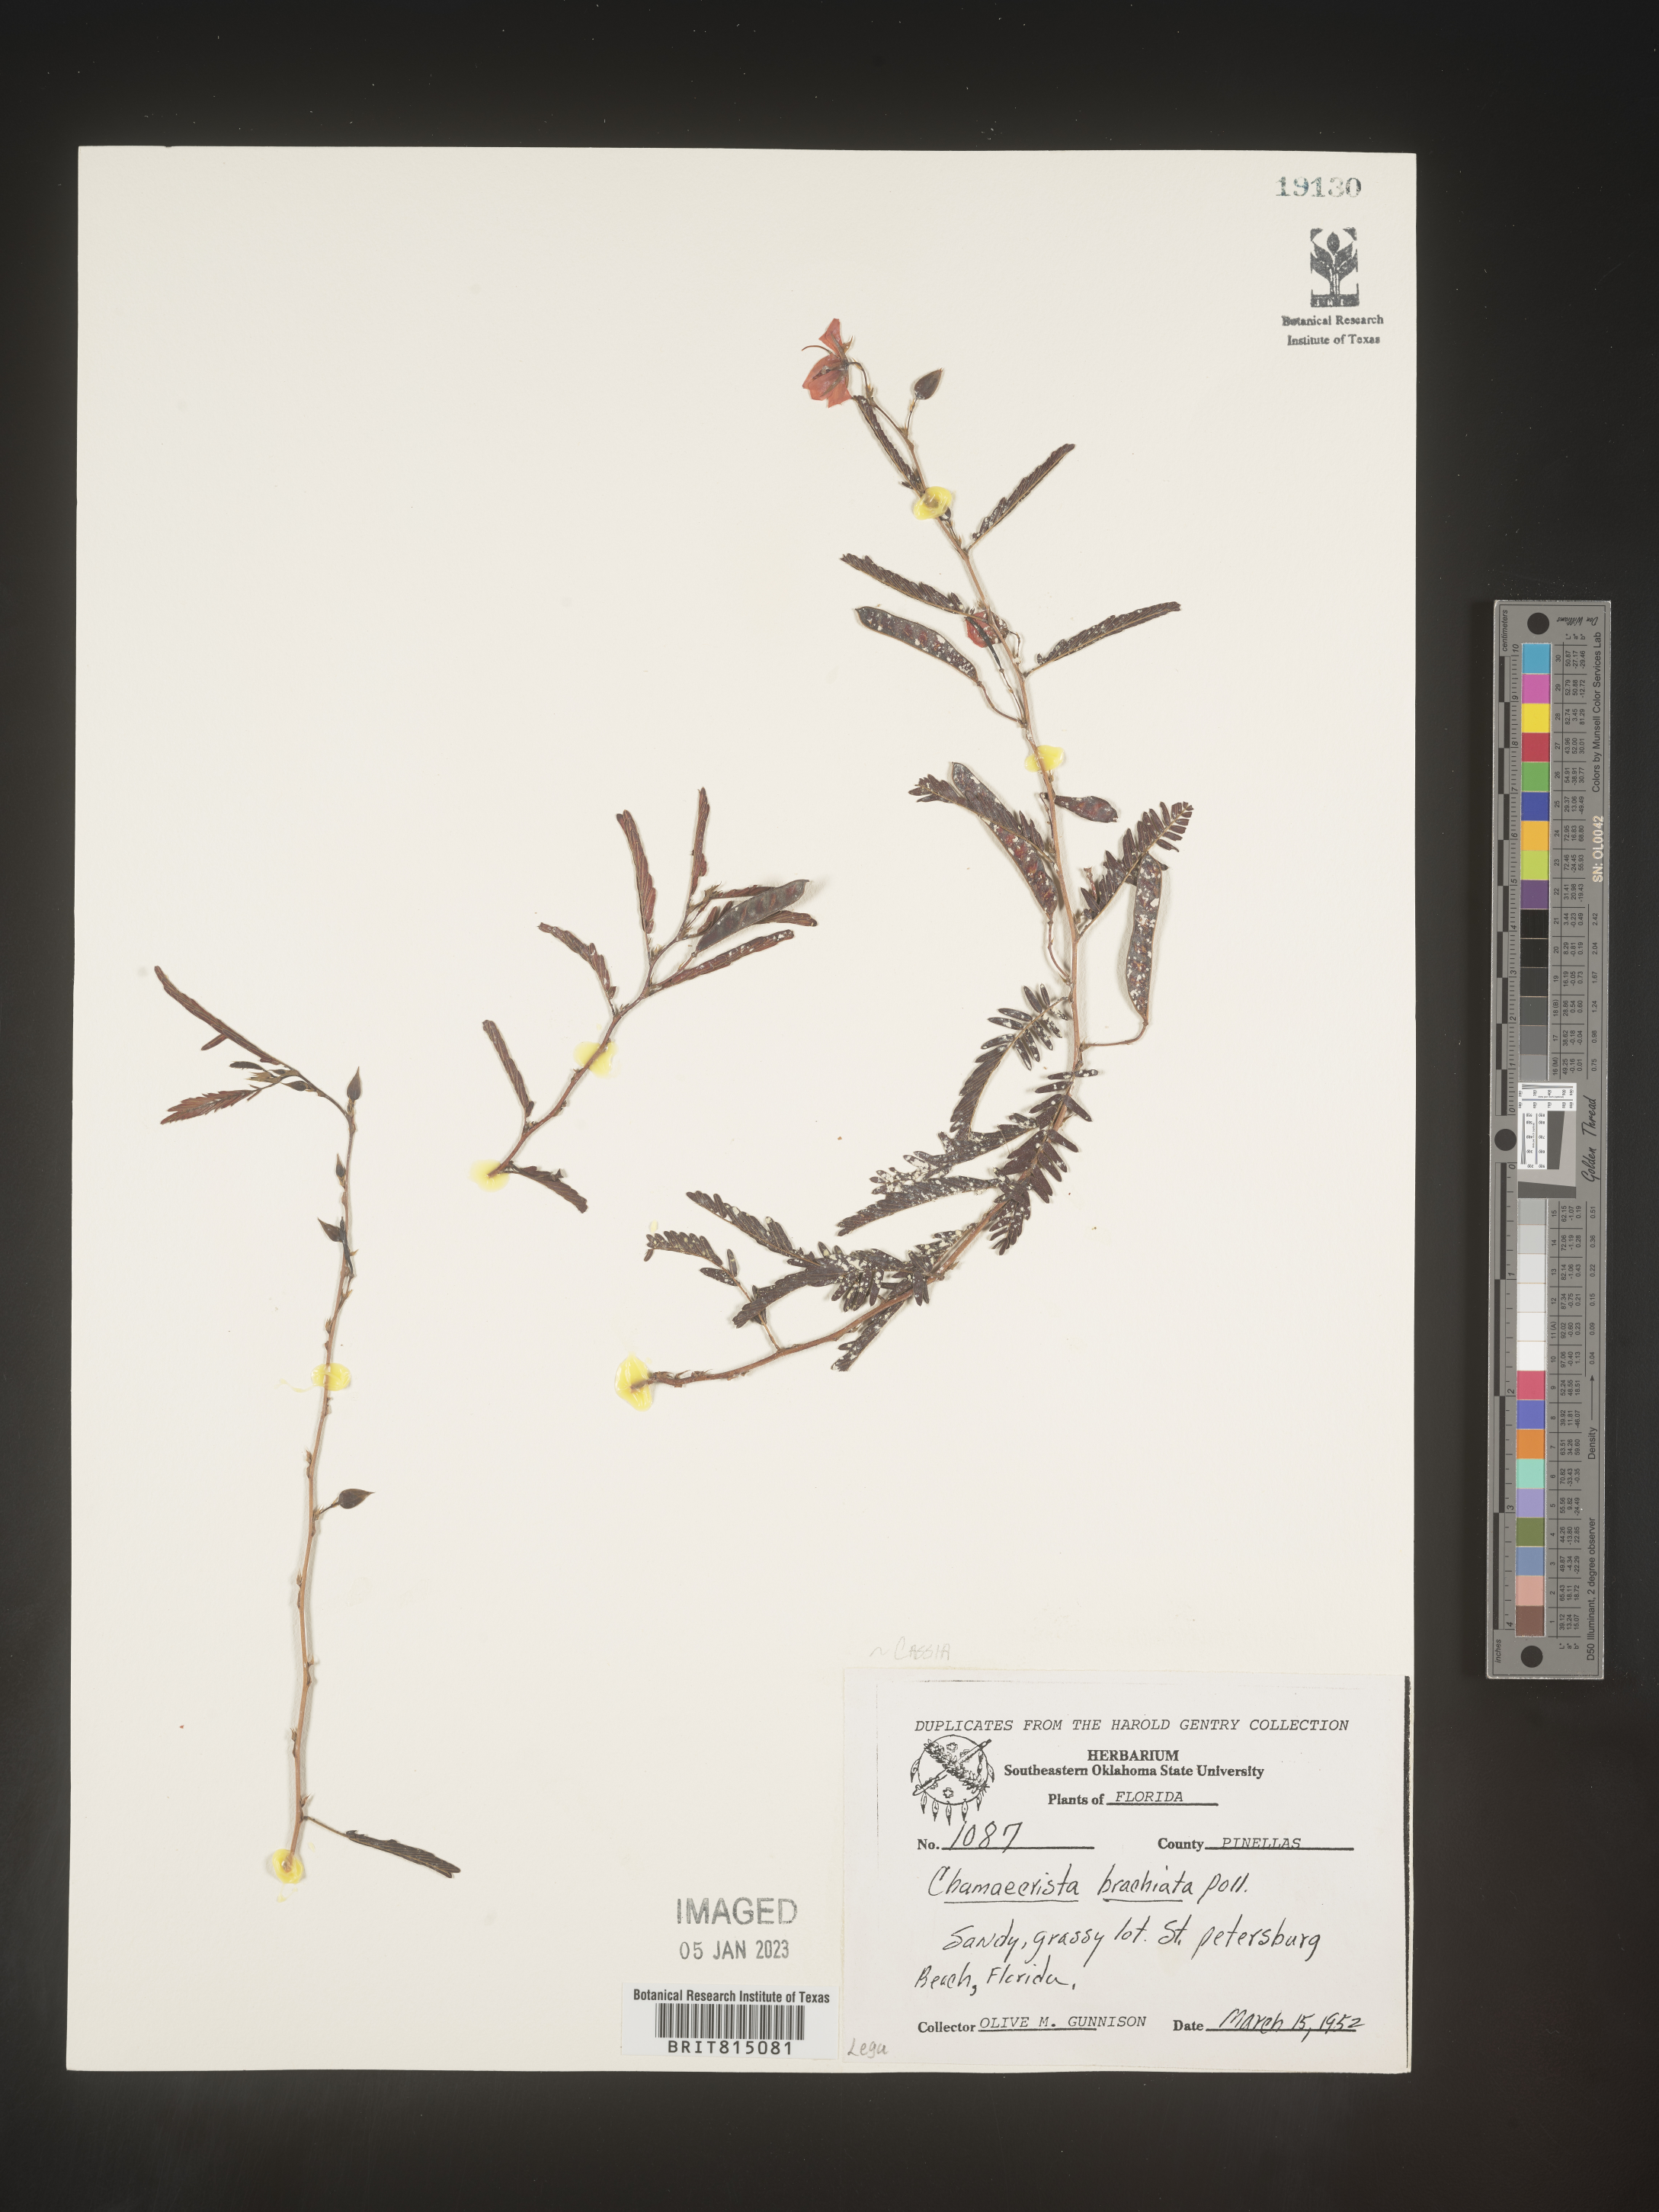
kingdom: Plantae
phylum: Tracheophyta
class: Magnoliopsida
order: Fabales
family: Fabaceae
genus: Chamaecrista
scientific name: Chamaecrista fasciculata
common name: Golden cassia
